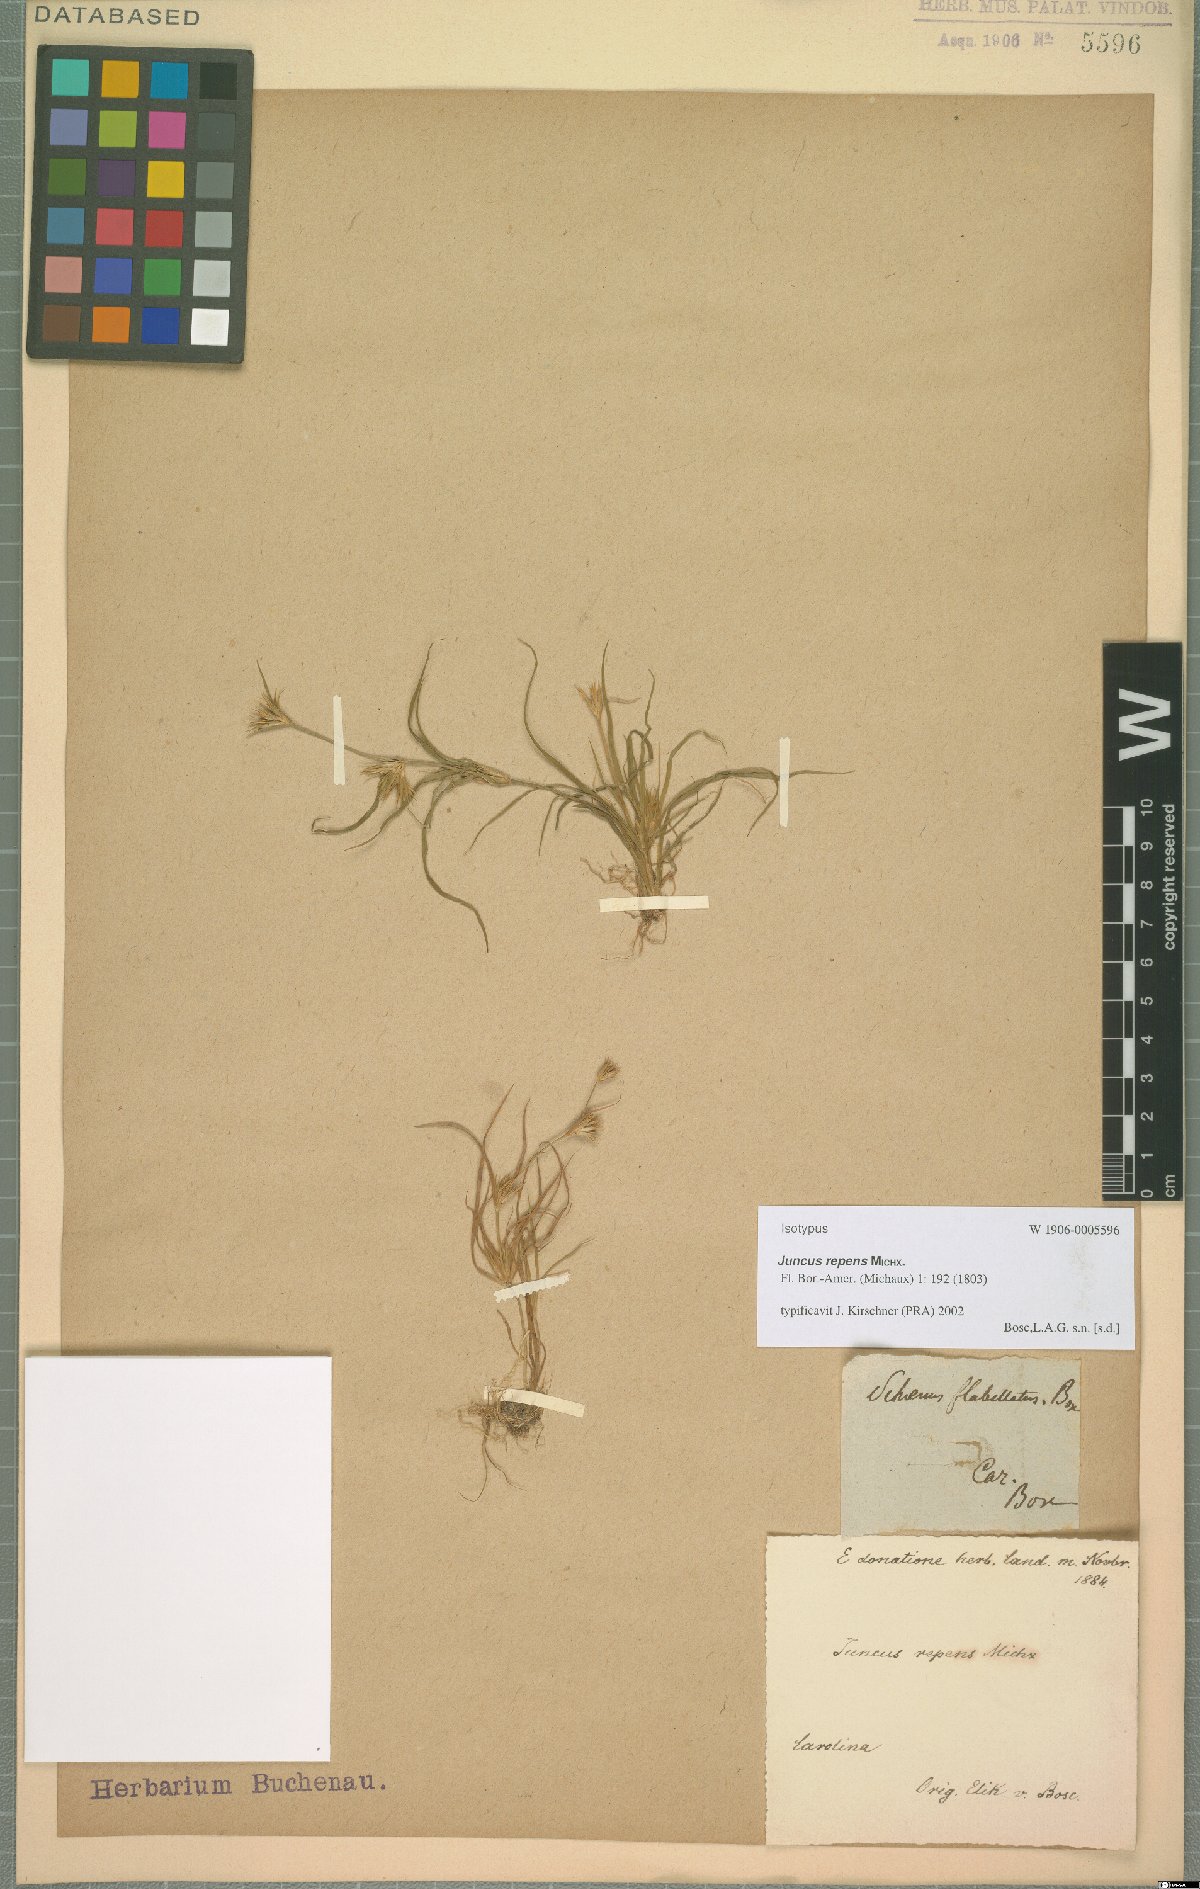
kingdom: Plantae
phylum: Tracheophyta
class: Liliopsida
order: Poales
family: Juncaceae
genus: Juncus
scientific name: Juncus repens
